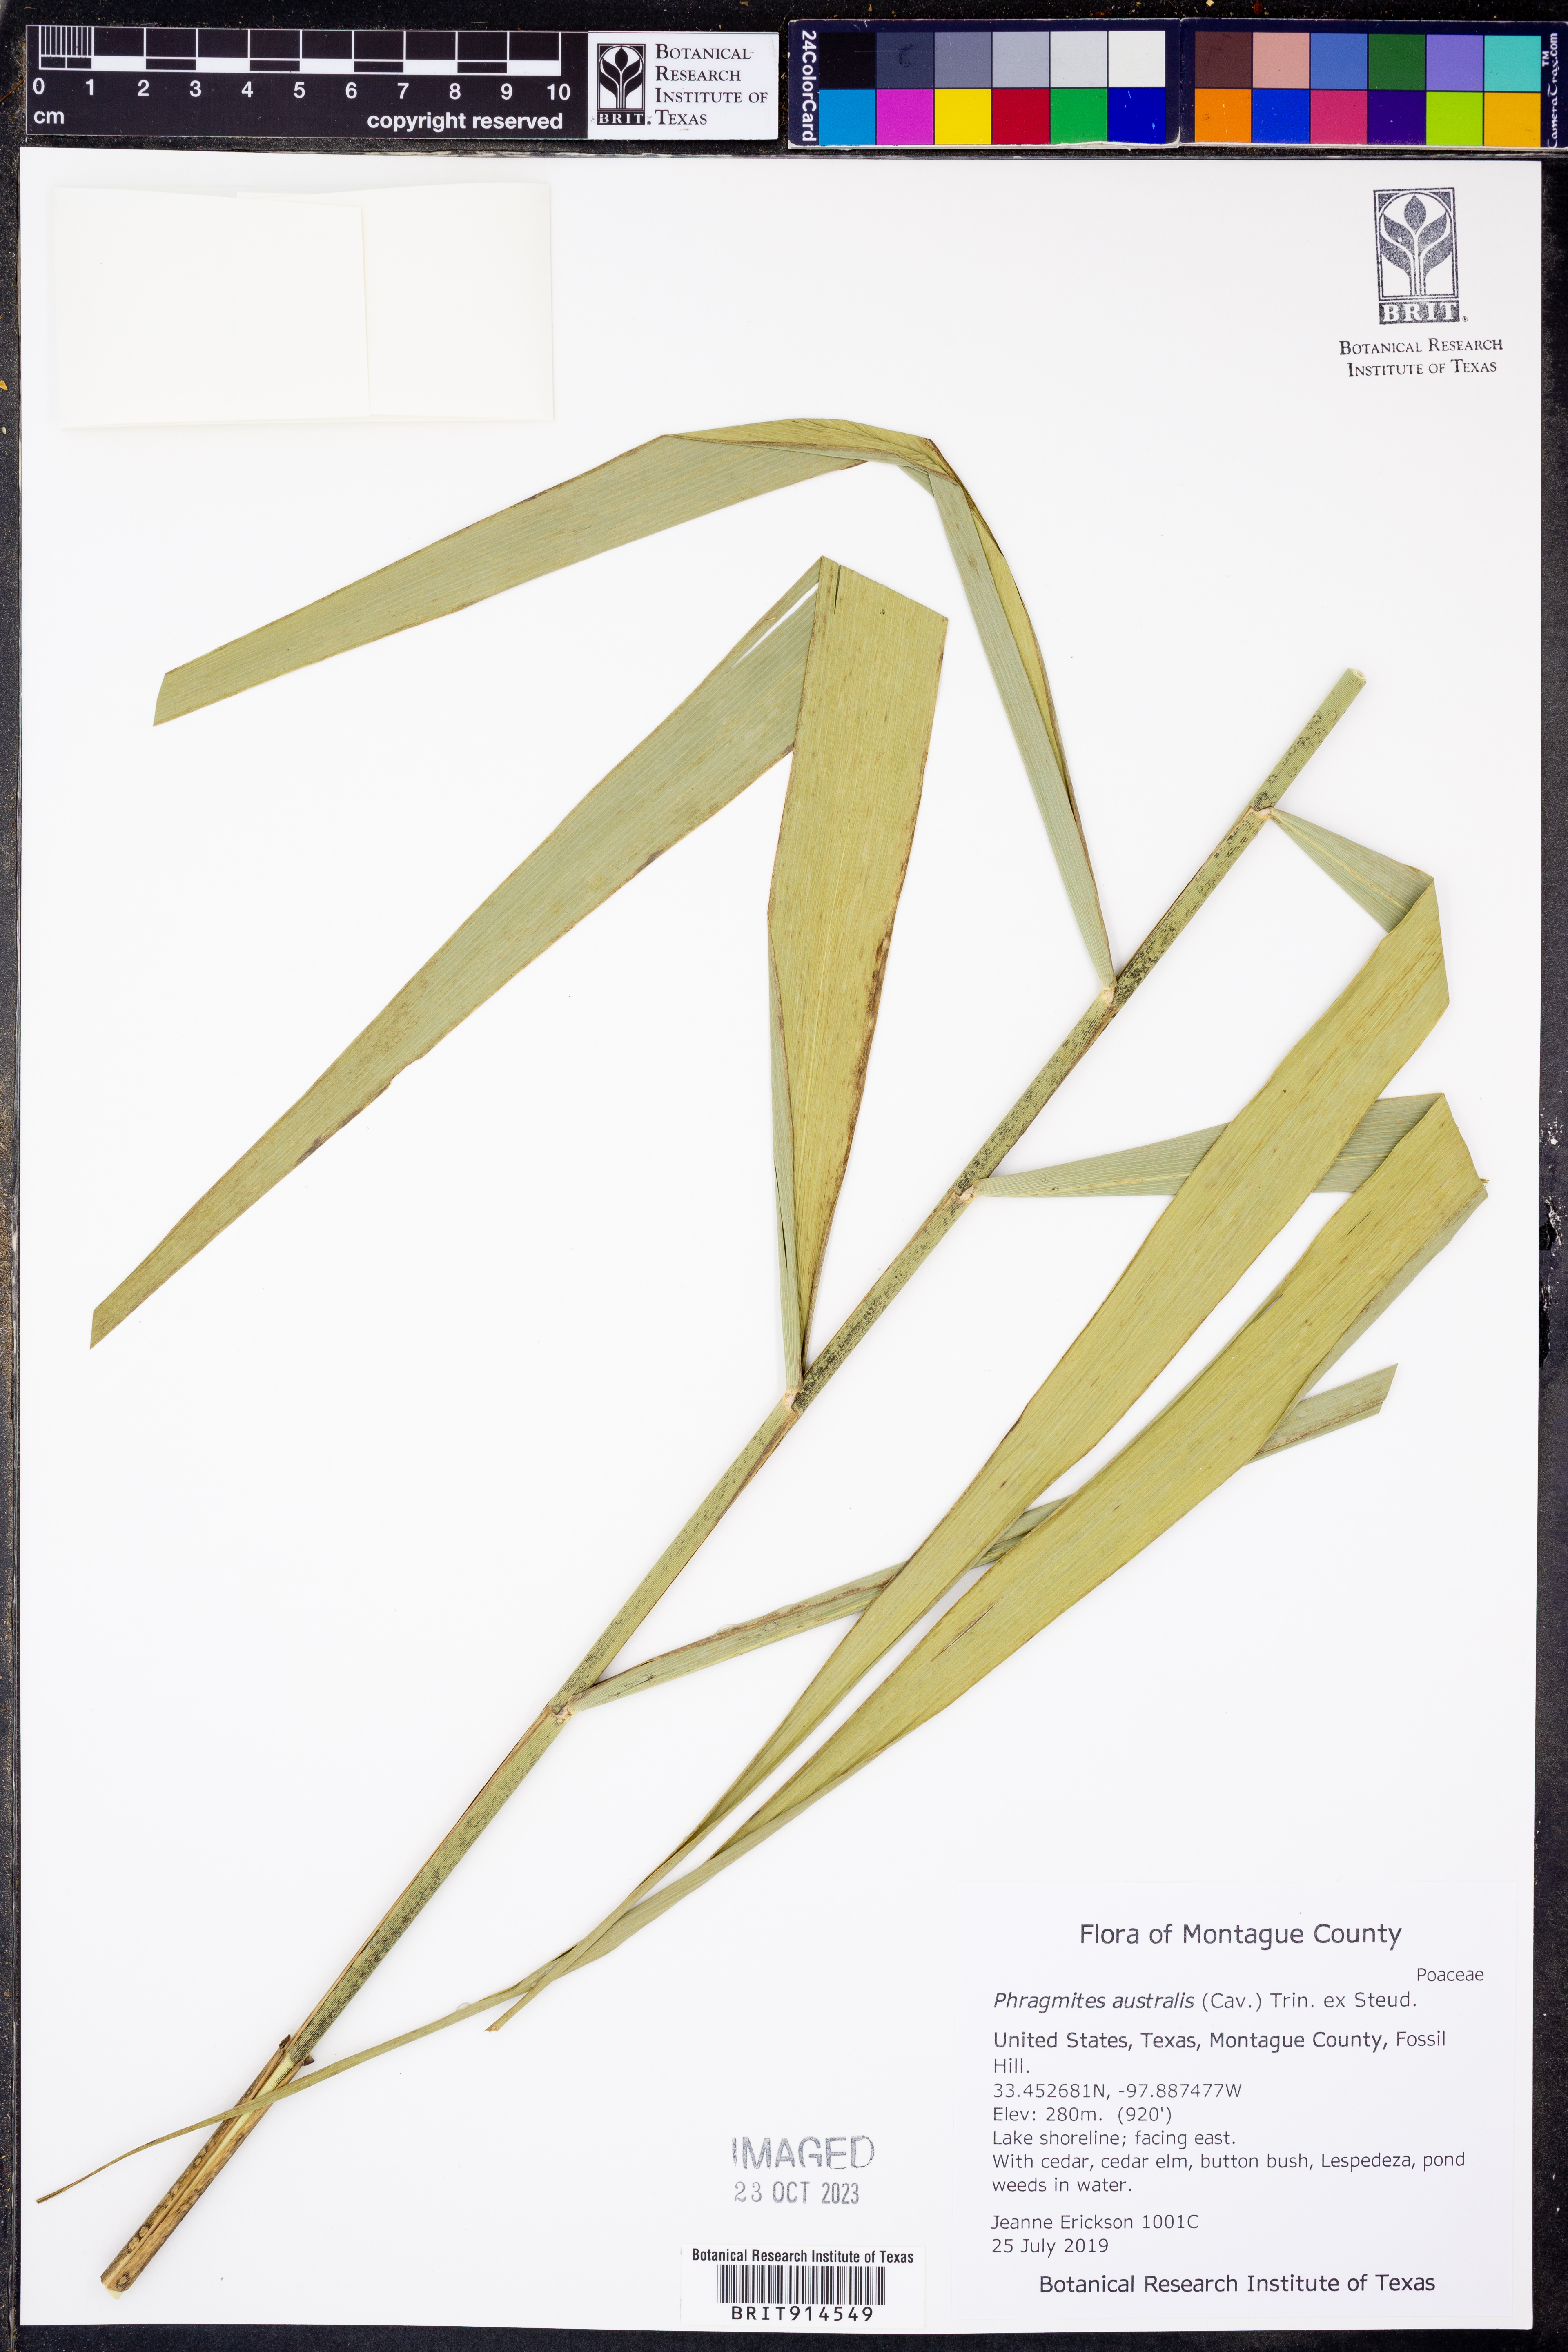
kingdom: Plantae
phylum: Tracheophyta
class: Liliopsida
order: Poales
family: Poaceae
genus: Phragmites
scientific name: Phragmites australis
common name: Common reed
